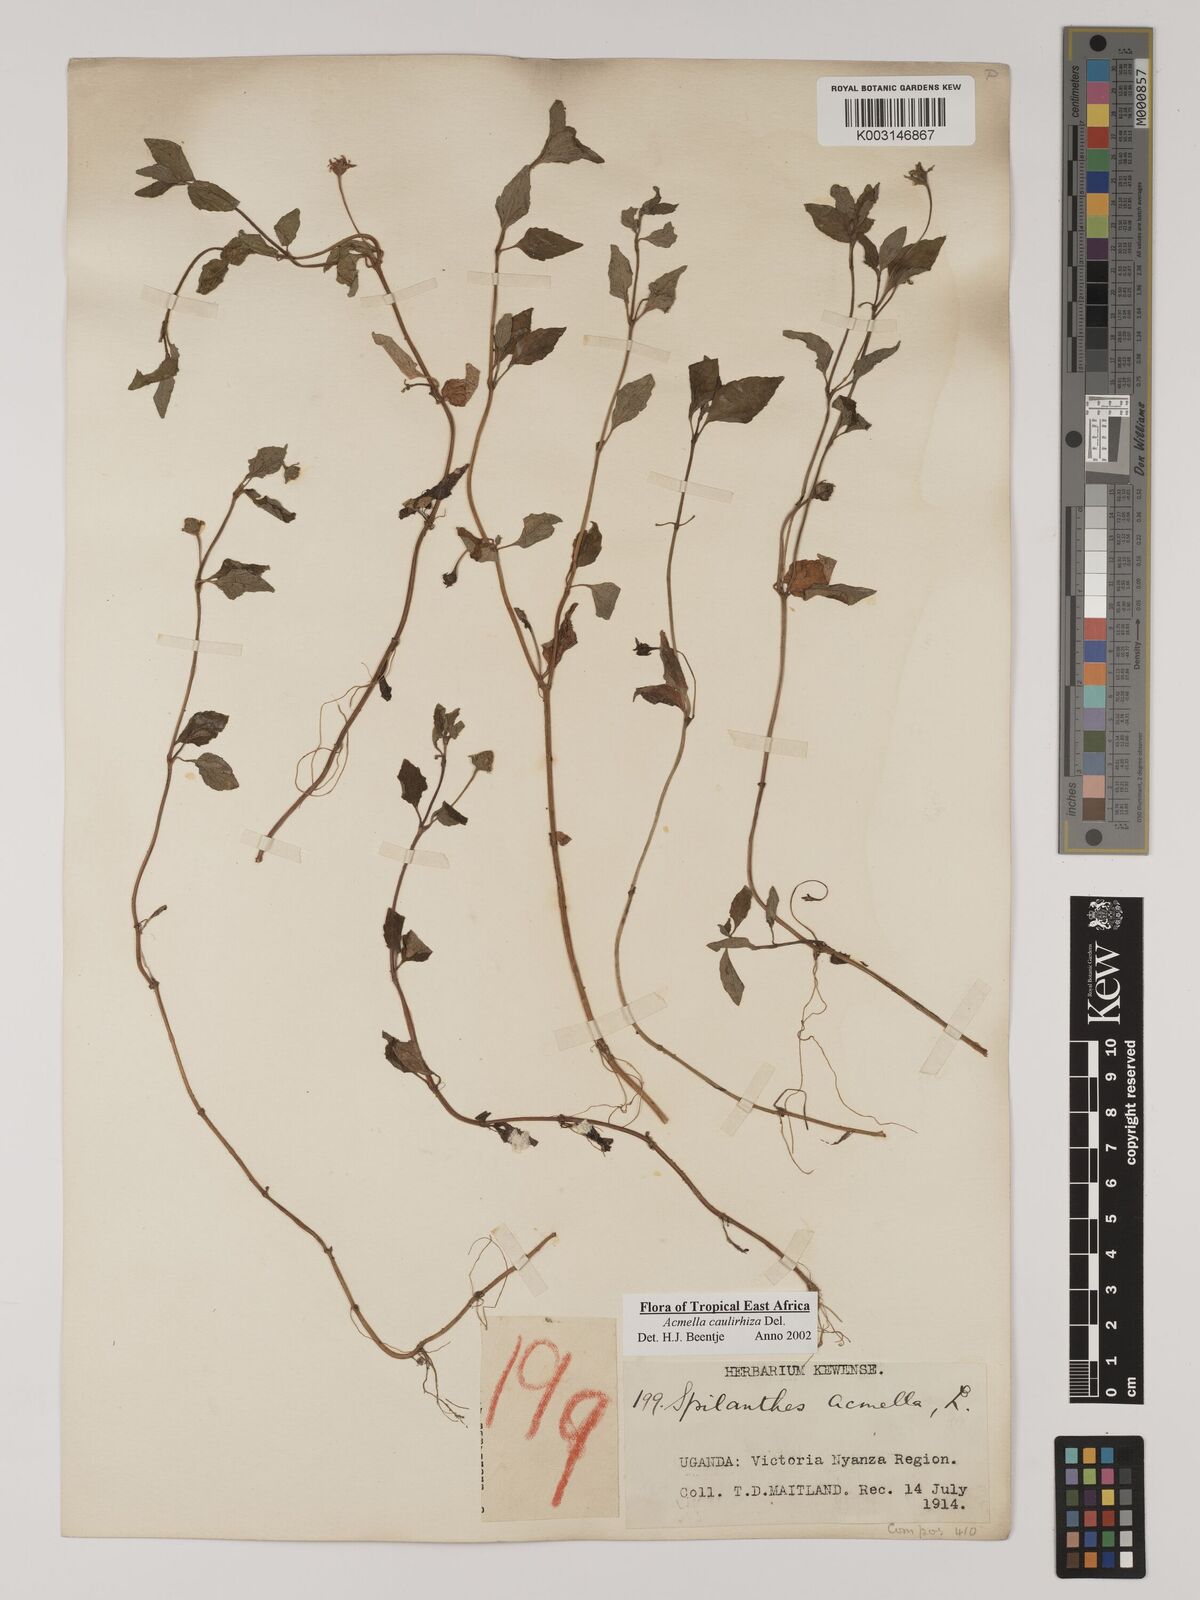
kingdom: Plantae
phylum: Tracheophyta
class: Magnoliopsida
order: Asterales
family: Asteraceae
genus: Acmella
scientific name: Acmella caulirhiza
